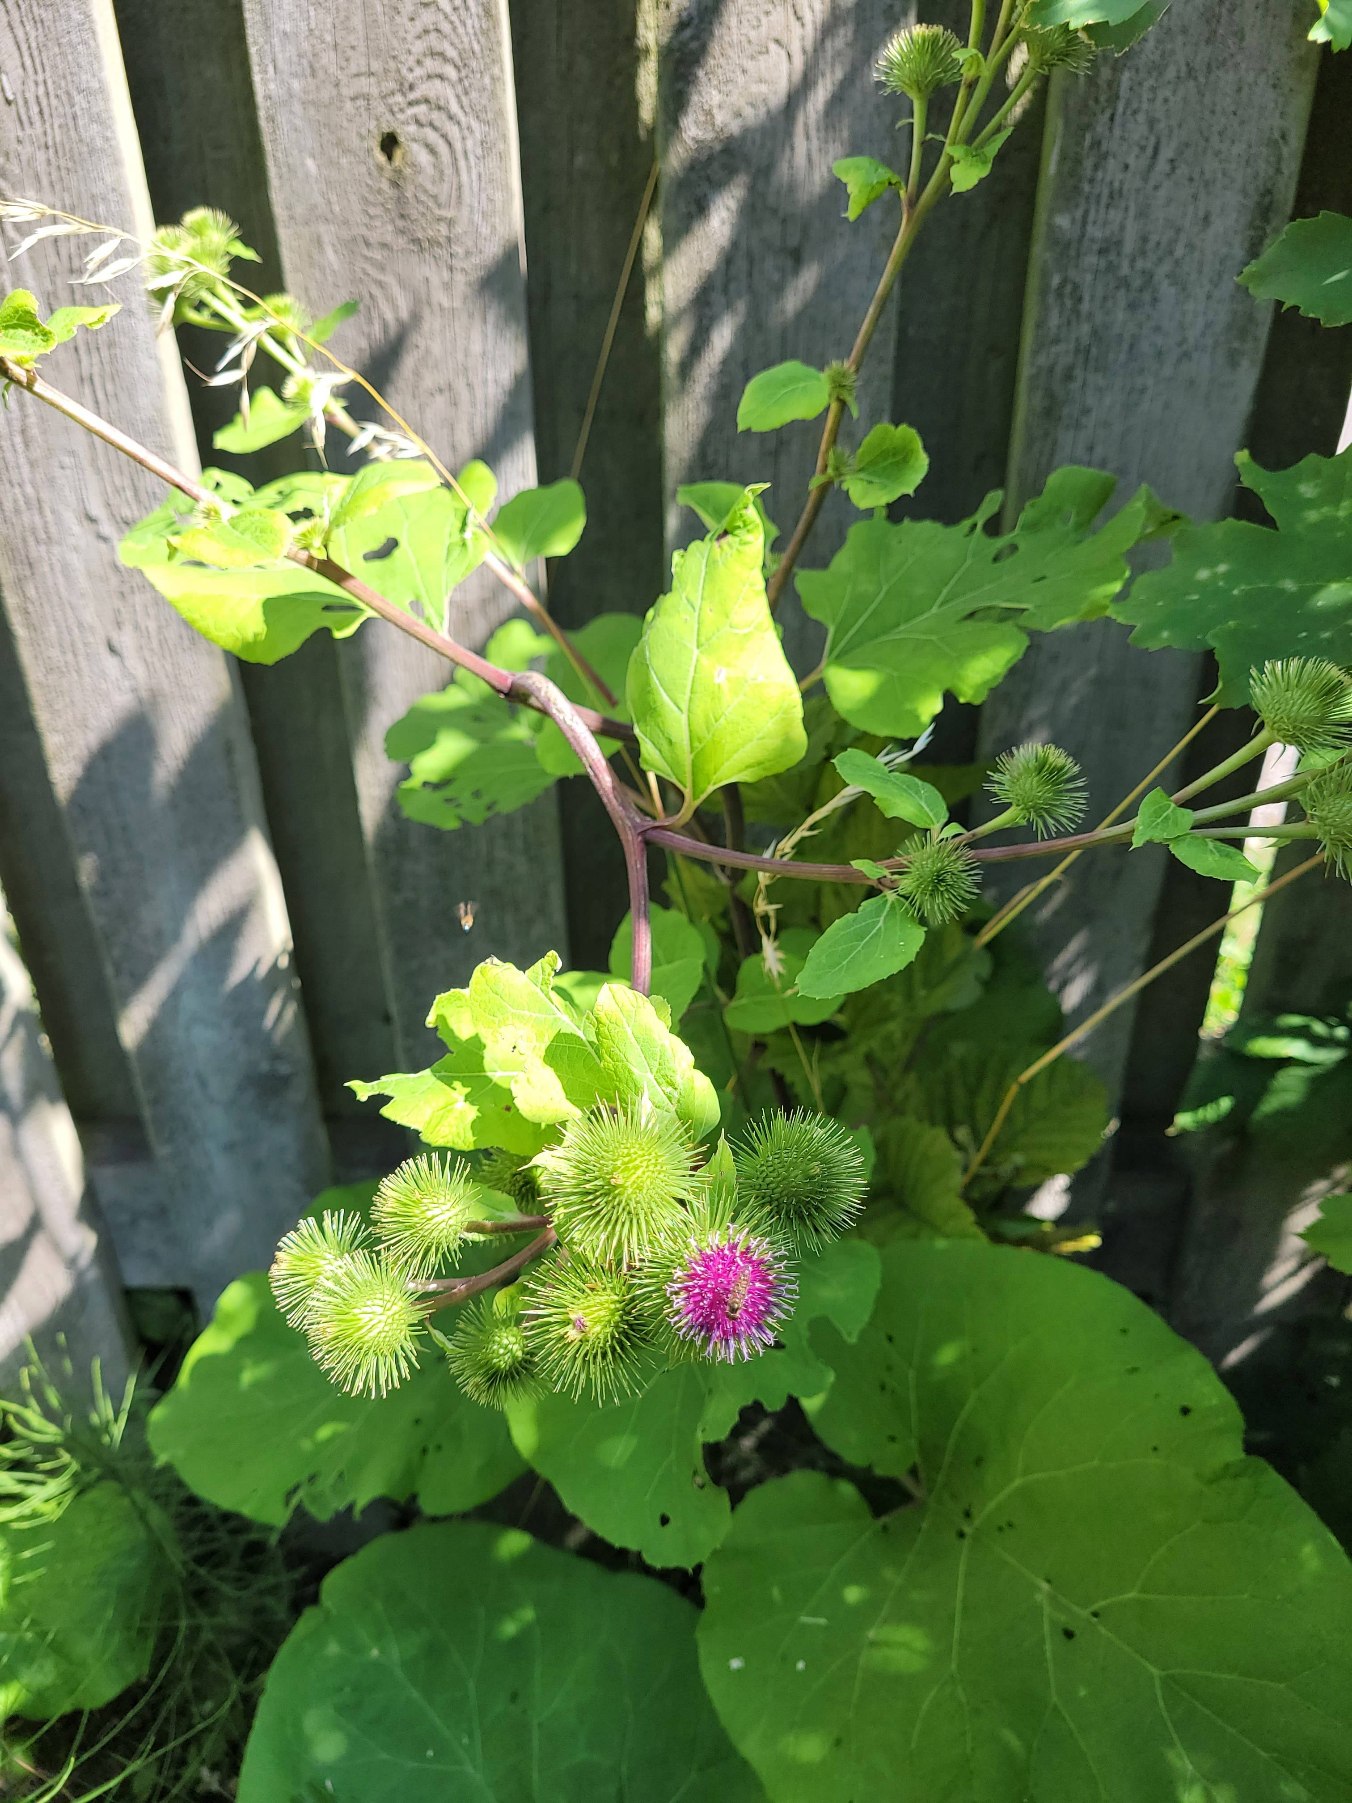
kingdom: Plantae
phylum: Tracheophyta
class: Magnoliopsida
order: Asterales
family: Asteraceae
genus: Arctium
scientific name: Arctium lappa
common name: Glat burre
